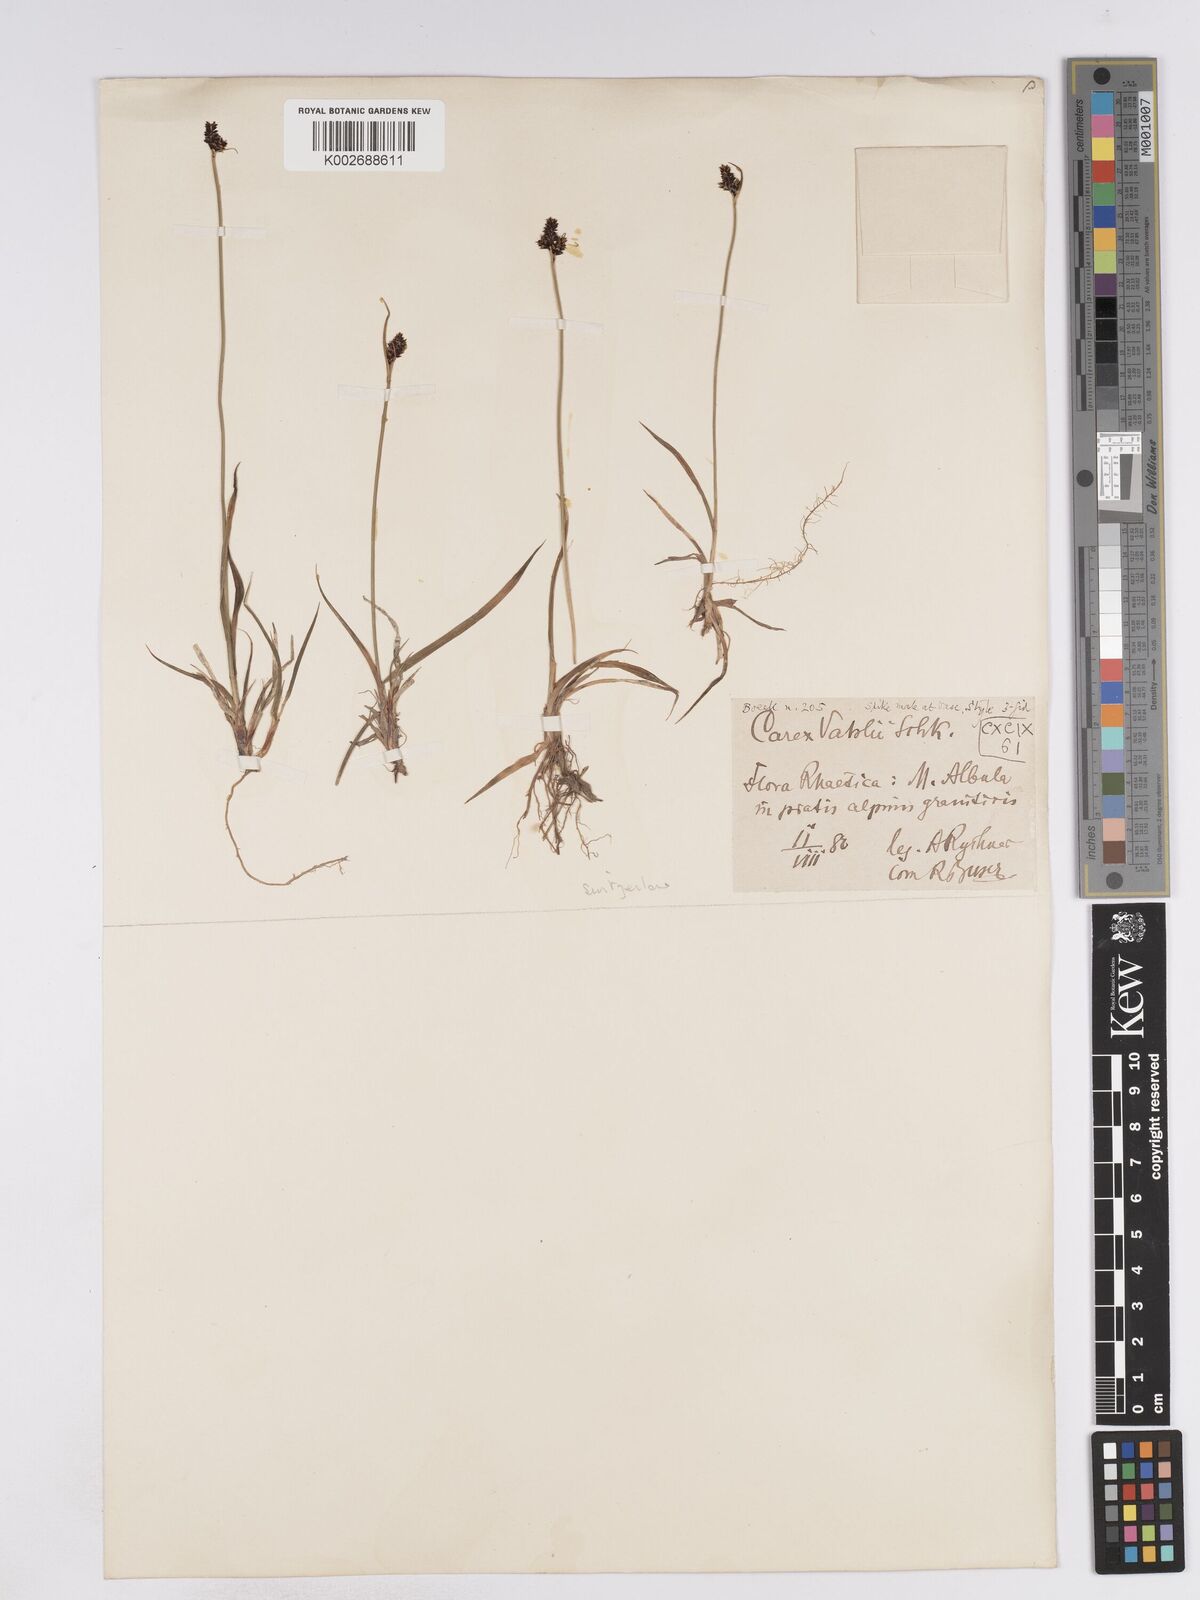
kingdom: Plantae
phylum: Tracheophyta
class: Liliopsida
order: Poales
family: Cyperaceae
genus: Carex
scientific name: Carex norvegica
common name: Close-headed alpine-sedge
